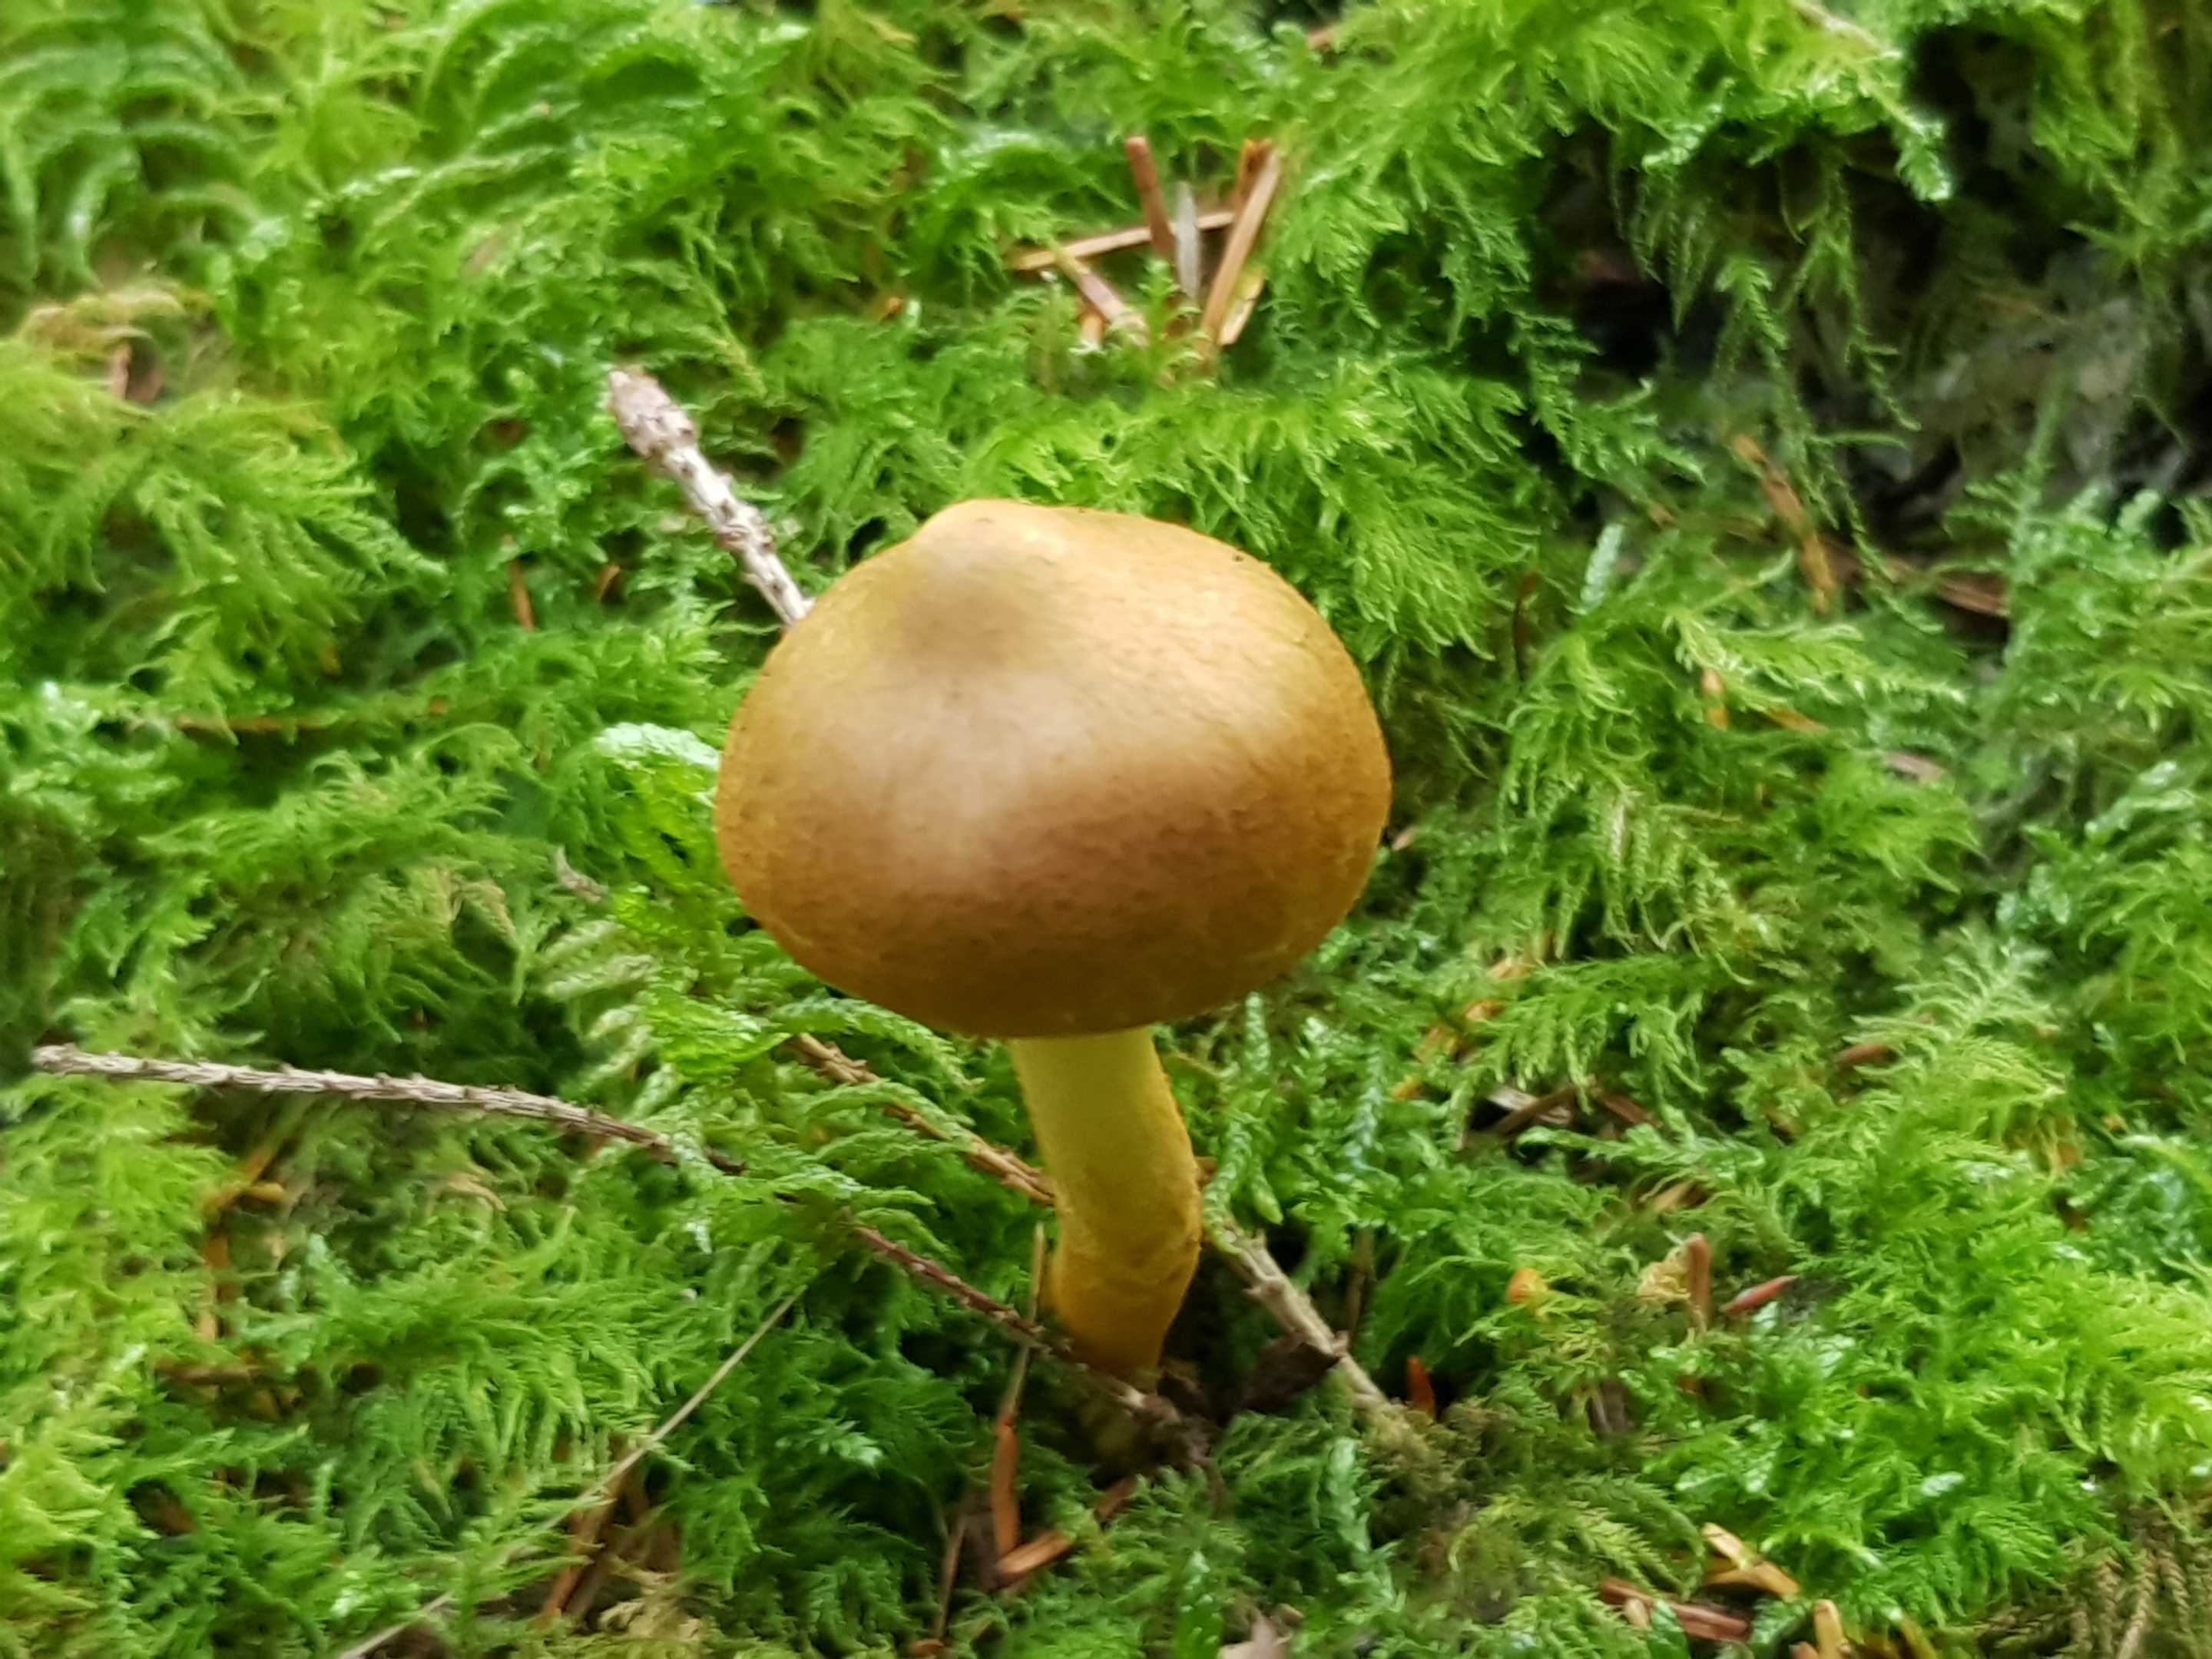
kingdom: Fungi
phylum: Basidiomycota
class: Agaricomycetes
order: Agaricales
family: Cortinariaceae
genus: Cortinarius
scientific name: Cortinarius
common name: cinnoberbladet slørhat
